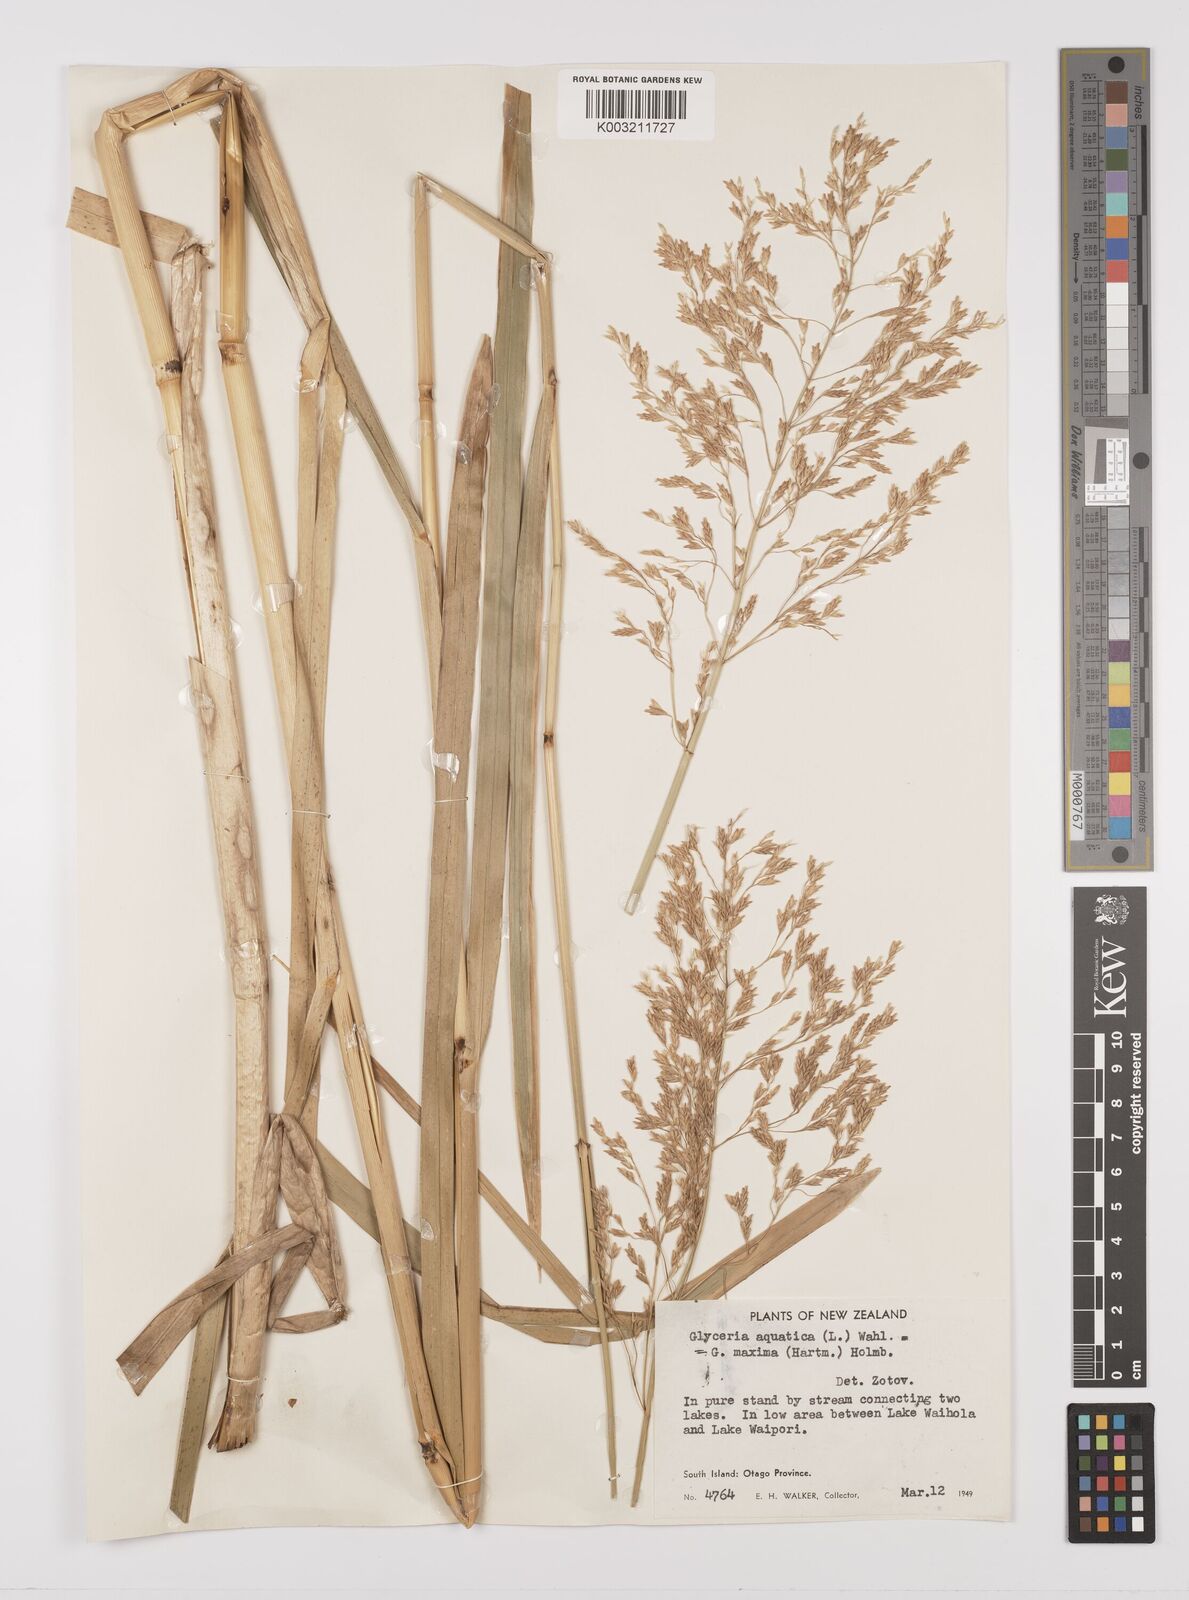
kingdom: Plantae
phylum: Tracheophyta
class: Liliopsida
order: Poales
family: Poaceae
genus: Glyceria
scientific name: Glyceria maxima
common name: Reed mannagrass
